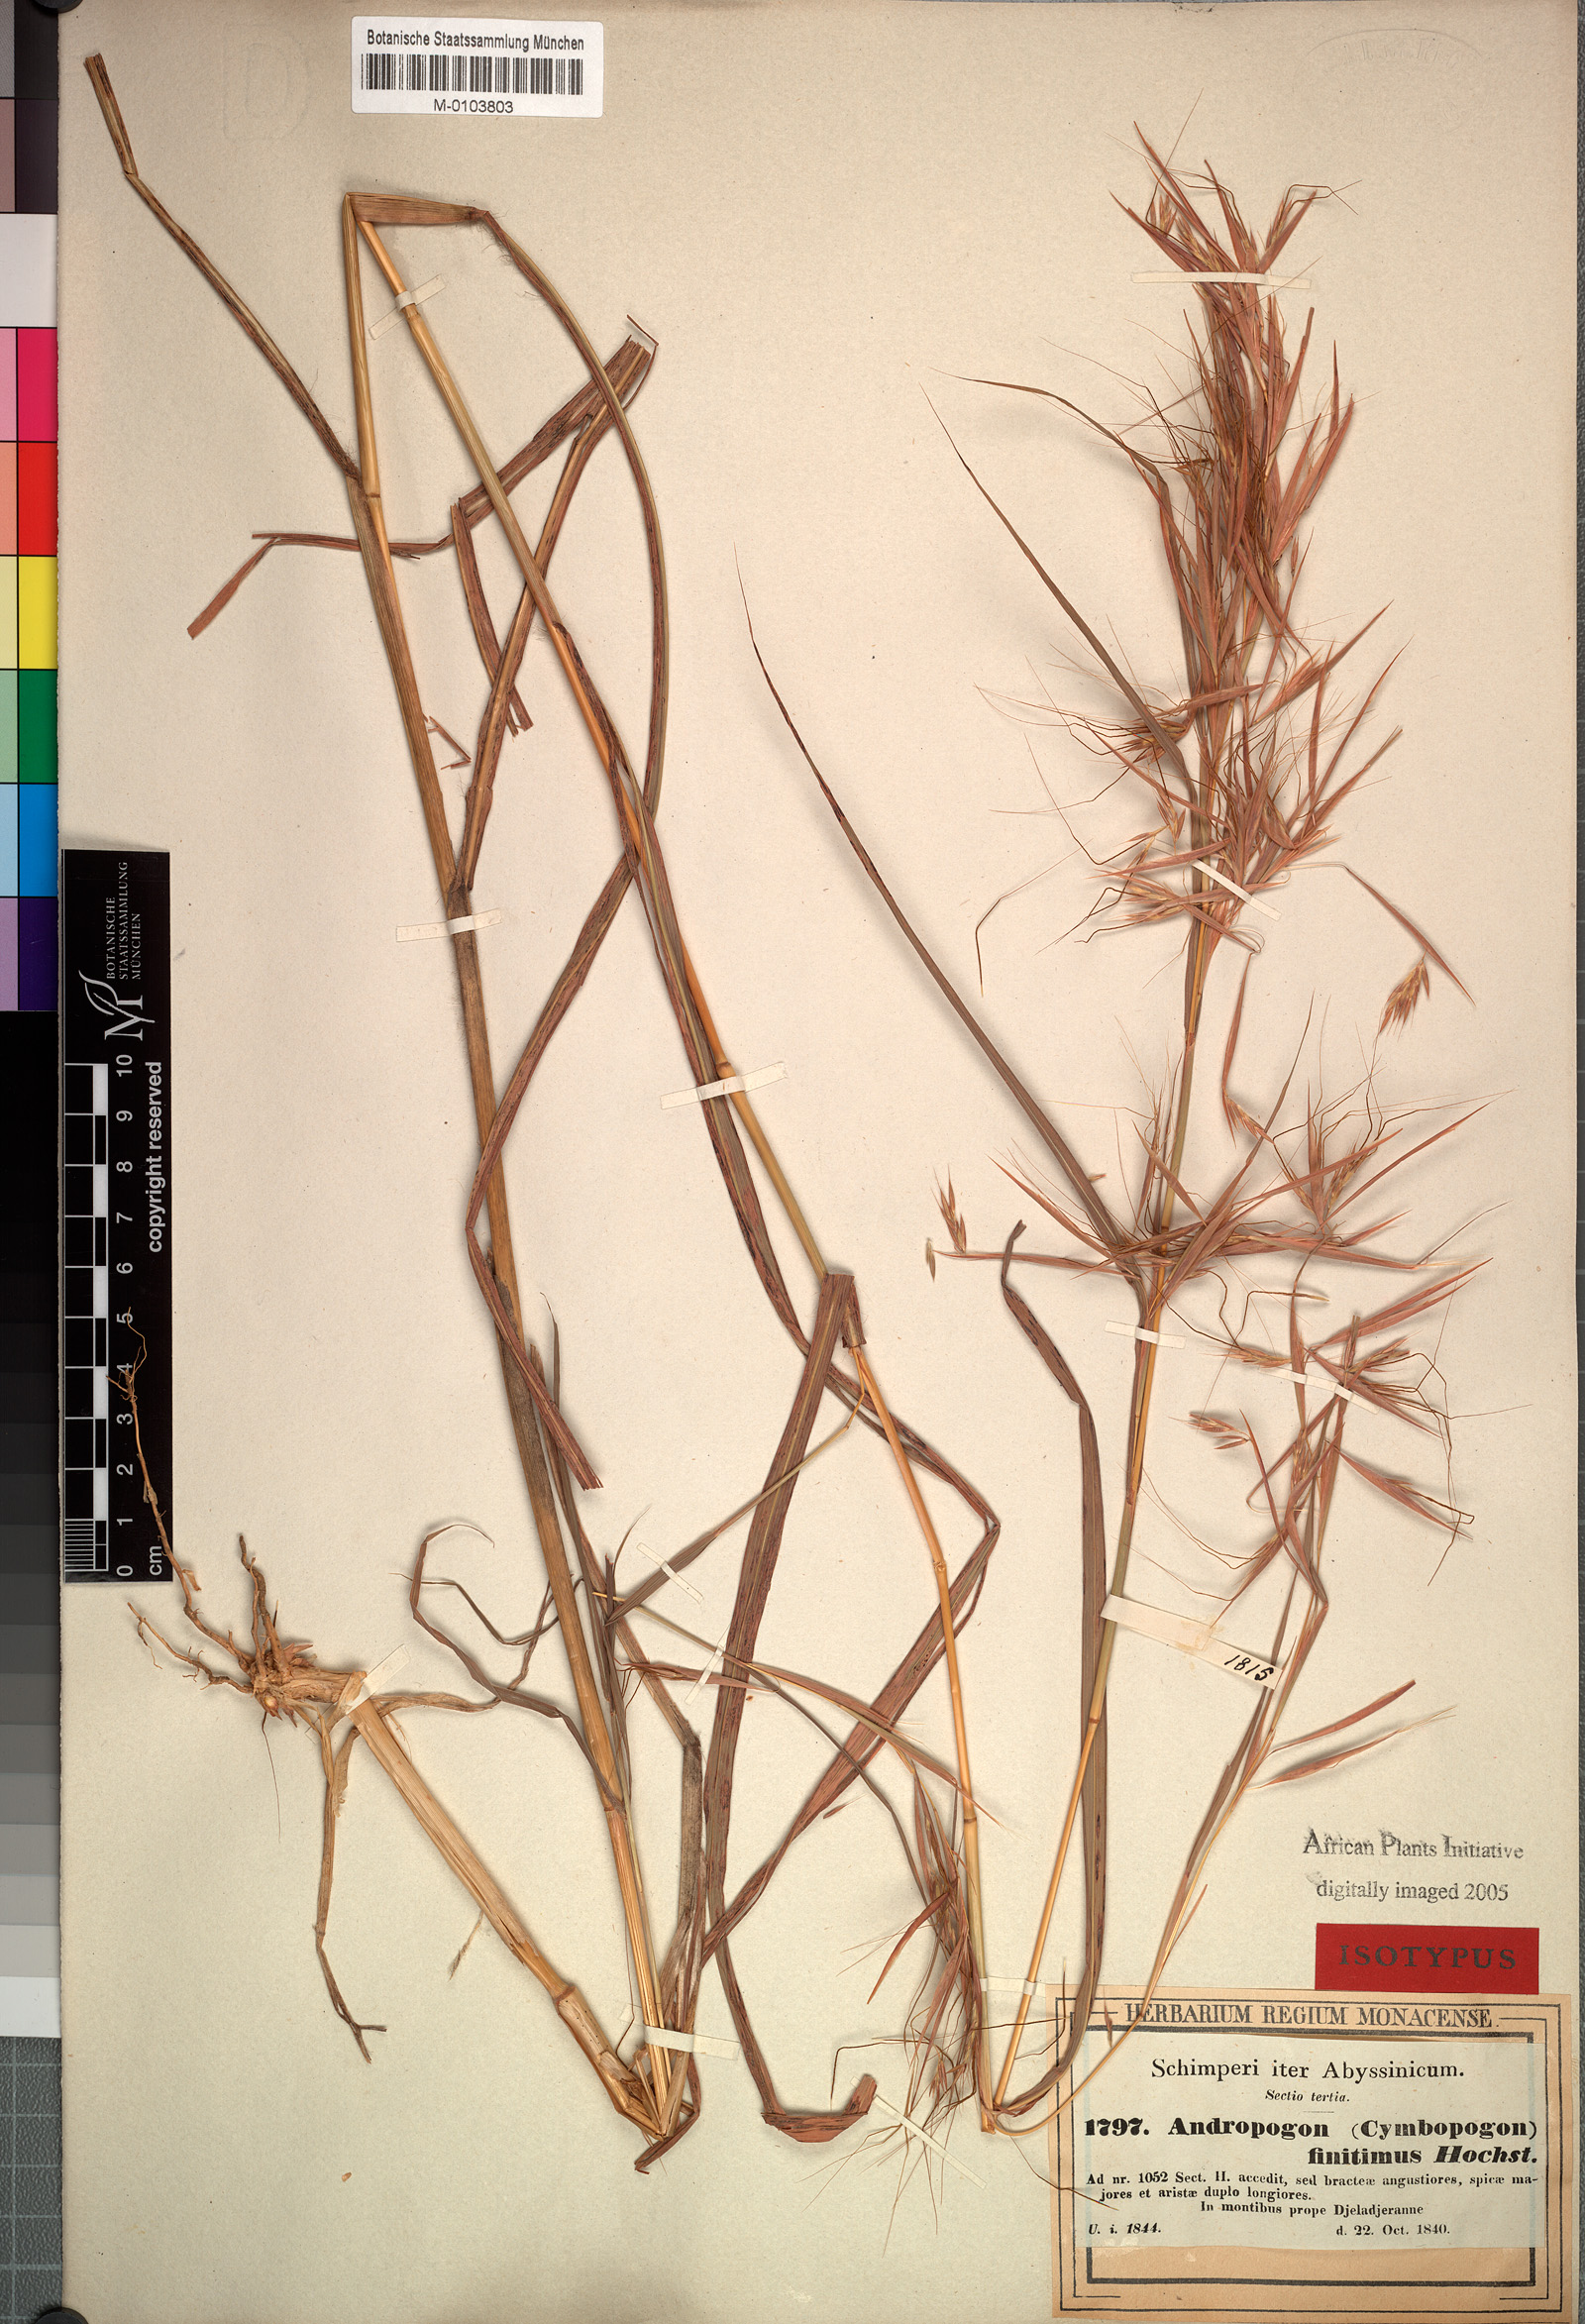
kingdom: Plantae
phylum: Tracheophyta
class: Liliopsida
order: Poales
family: Poaceae
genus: Hyparrhenia
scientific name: Hyparrhenia finitima
